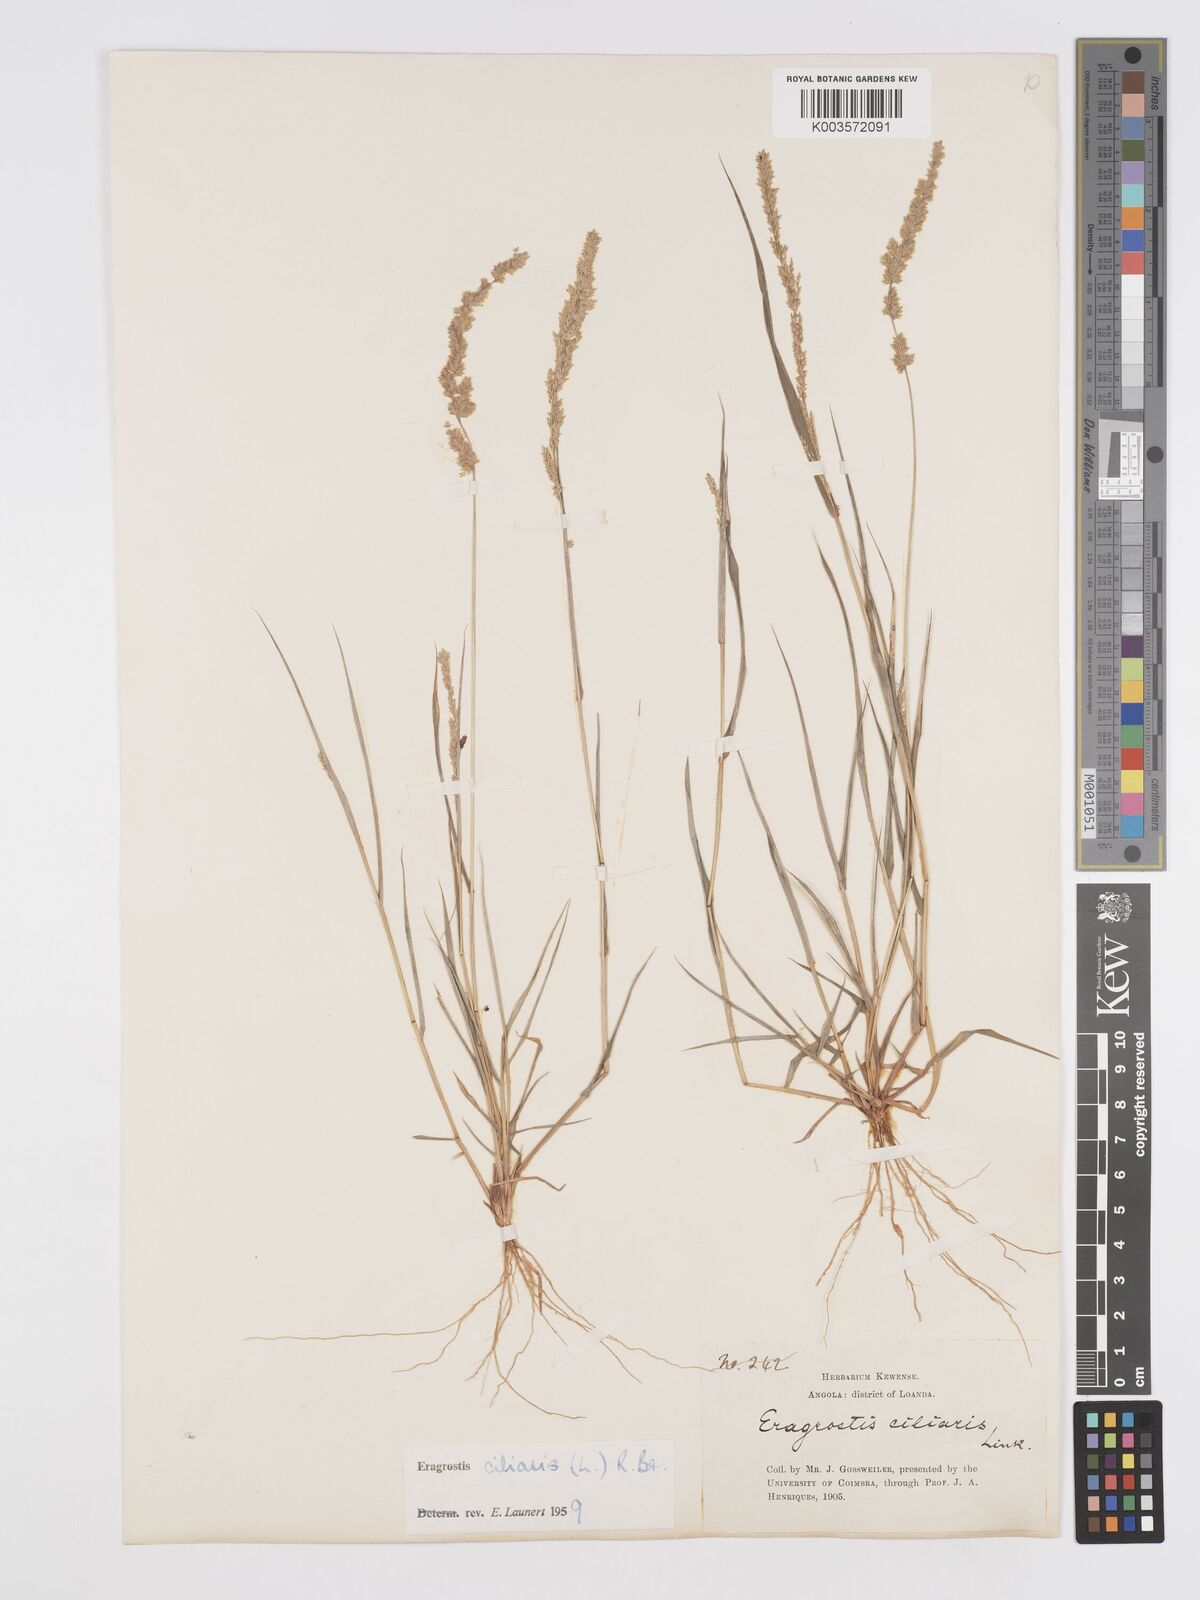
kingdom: Plantae
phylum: Tracheophyta
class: Liliopsida
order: Poales
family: Poaceae
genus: Eragrostis
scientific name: Eragrostis ciliaris
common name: Gophertail lovegrass
